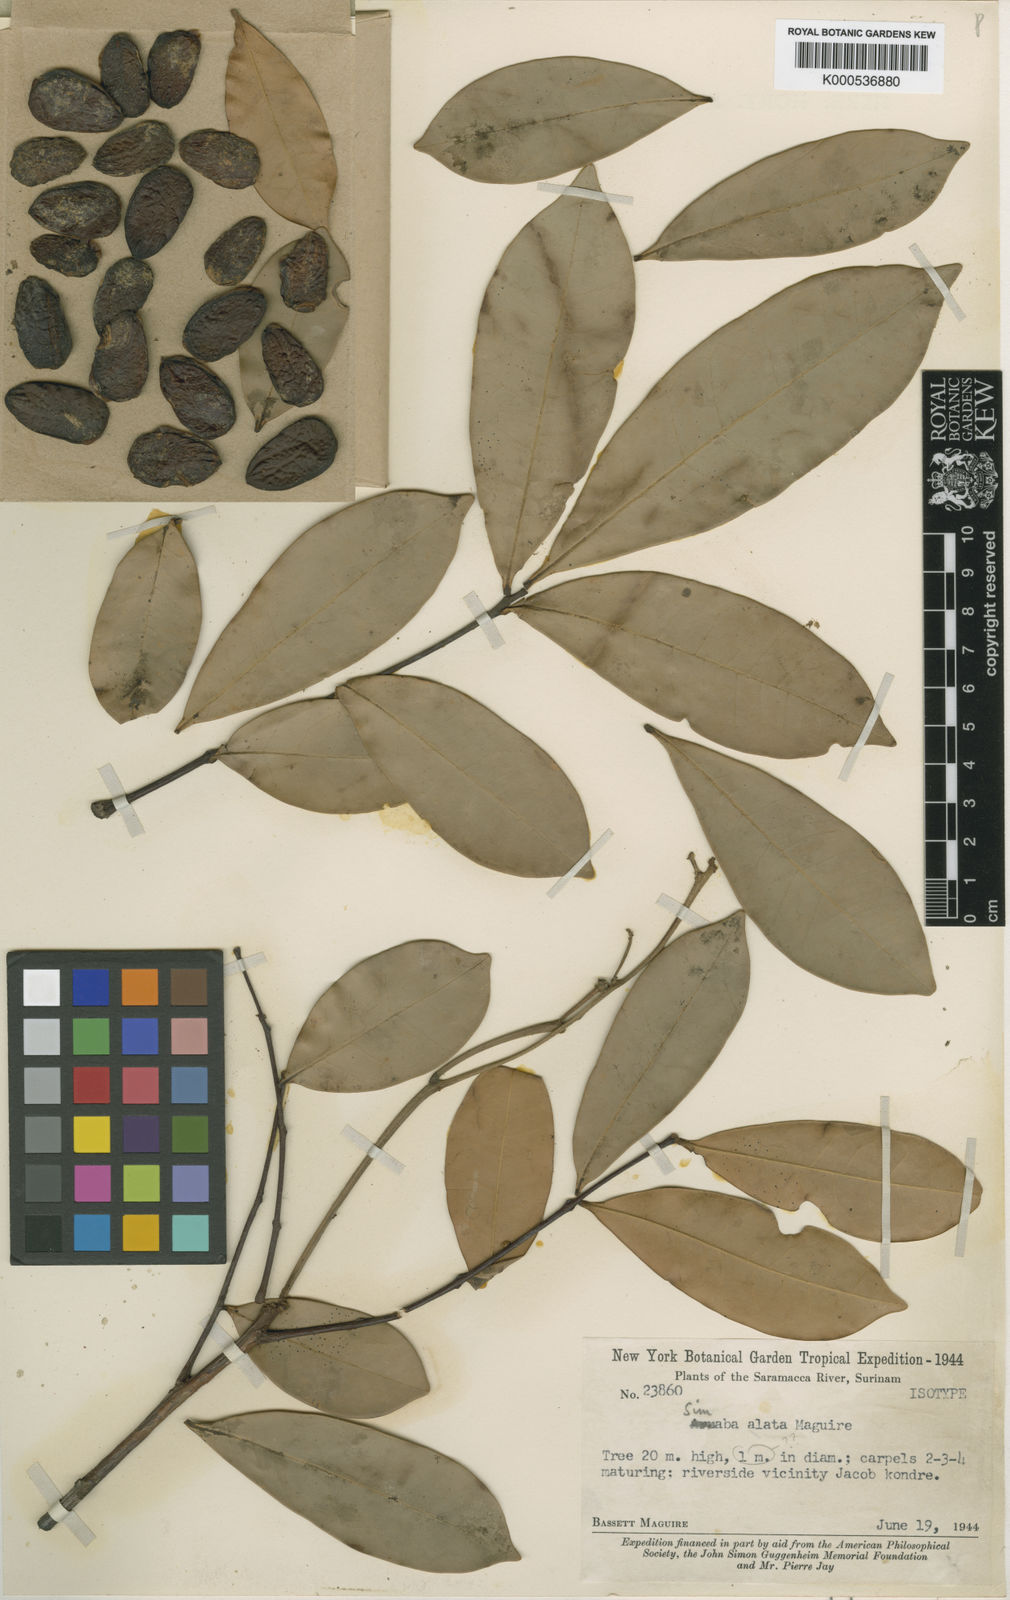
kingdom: Plantae
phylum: Tracheophyta
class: Magnoliopsida
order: Sapindales
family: Simaroubaceae
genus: Quassia
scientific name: Quassia
